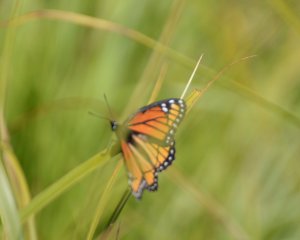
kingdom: Animalia
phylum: Arthropoda
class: Insecta
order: Lepidoptera
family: Nymphalidae
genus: Limenitis
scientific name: Limenitis archippus
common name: Viceroy
